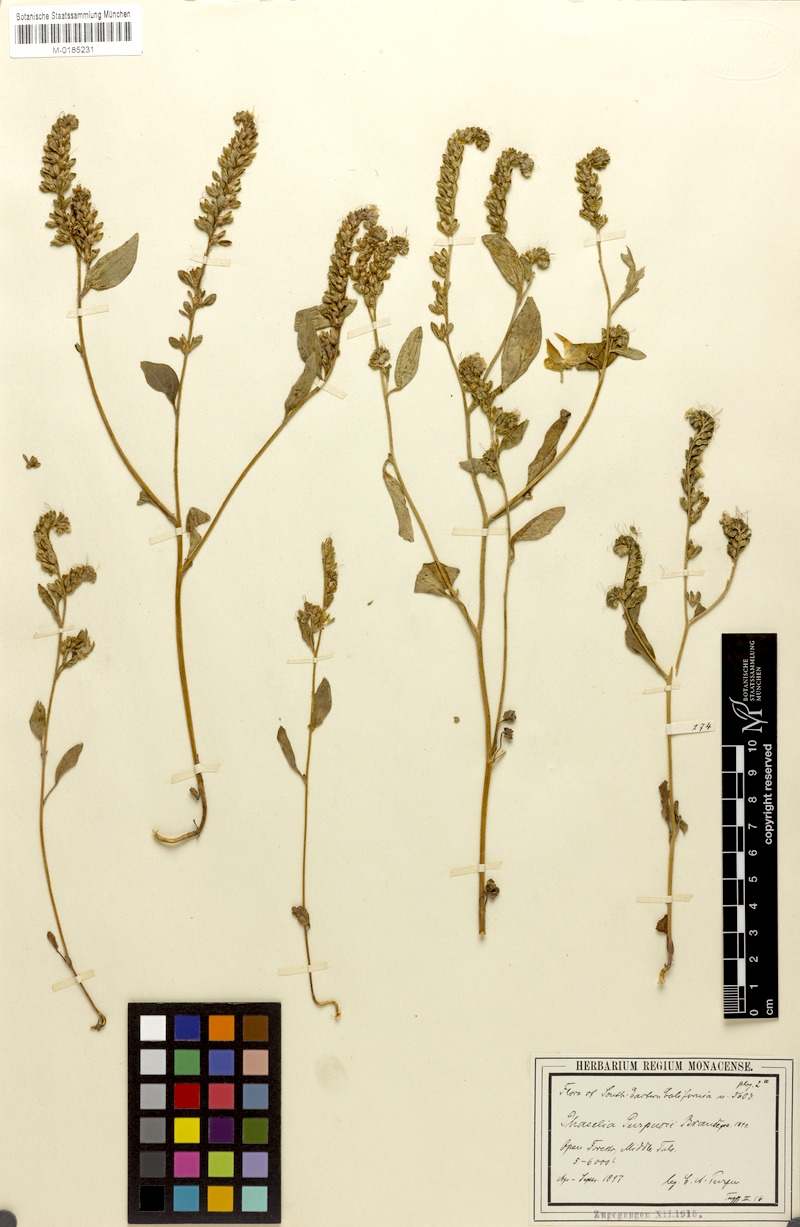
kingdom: Plantae
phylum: Tracheophyta
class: Magnoliopsida
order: Boraginales
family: Hydrophyllaceae
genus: Phacelia
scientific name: Phacelia purpusii
